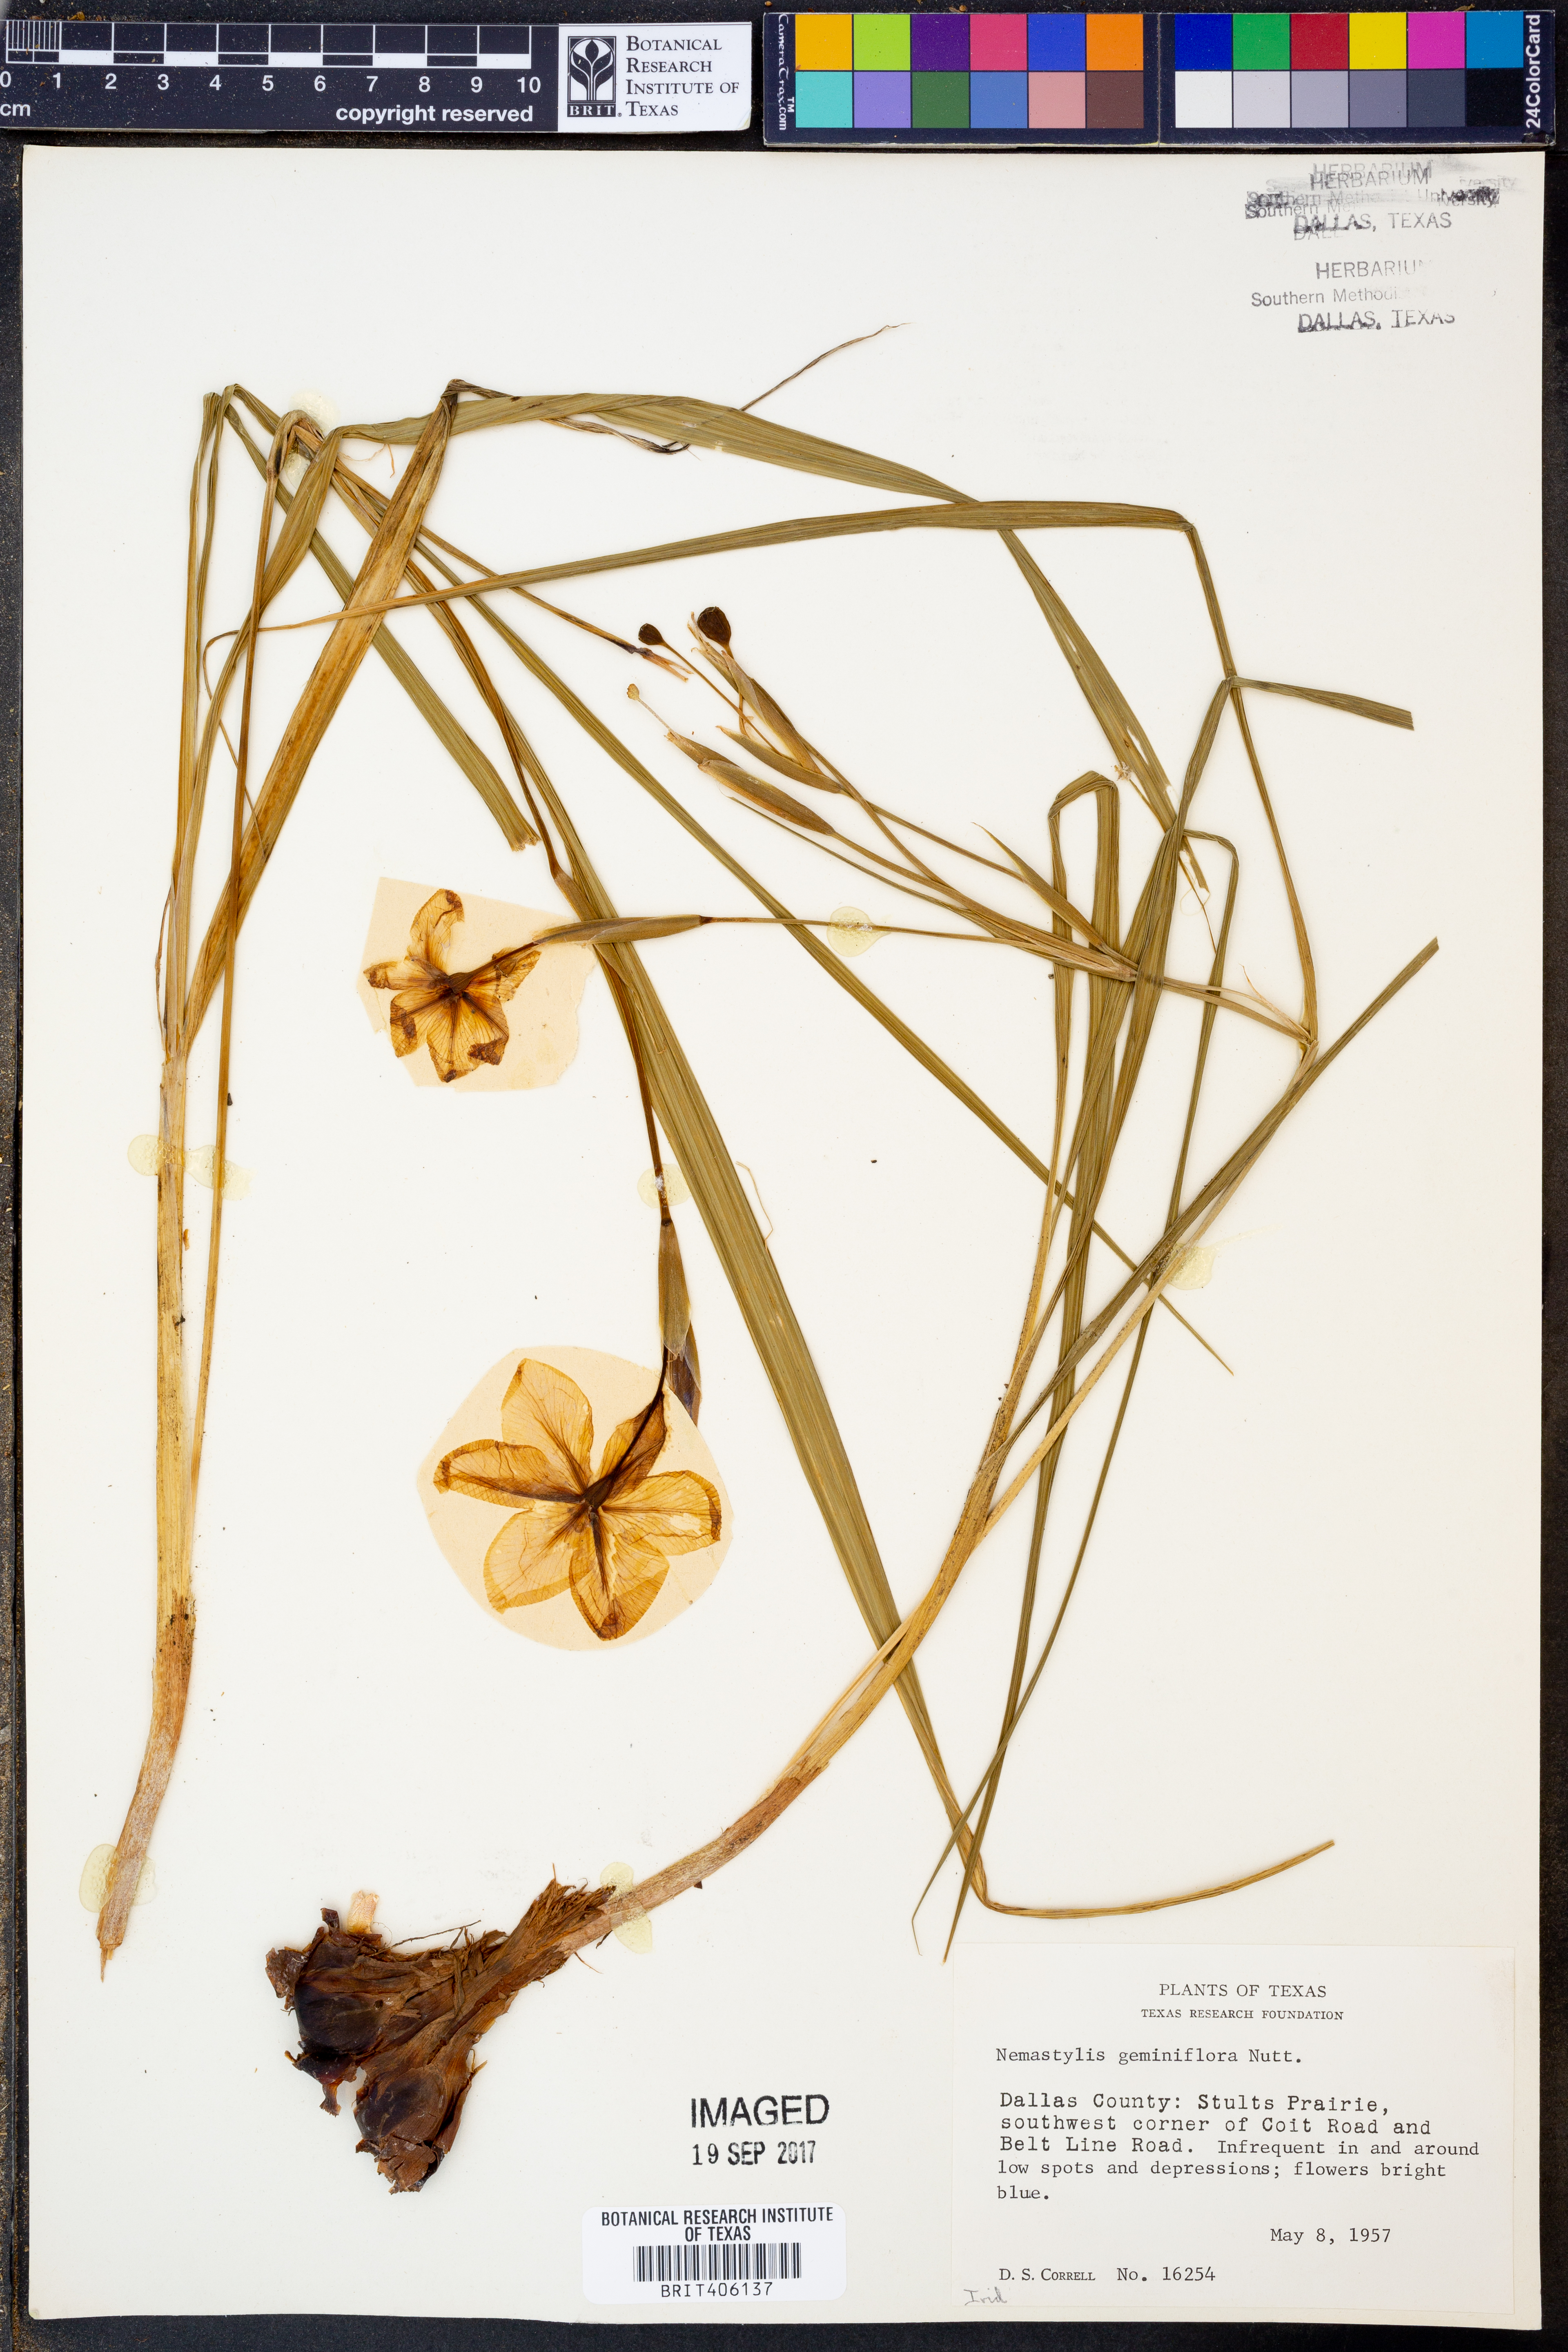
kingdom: Plantae
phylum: Tracheophyta
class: Liliopsida
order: Asparagales
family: Iridaceae
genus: Nemastylis
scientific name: Nemastylis geminiflora
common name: Prairie celestial
